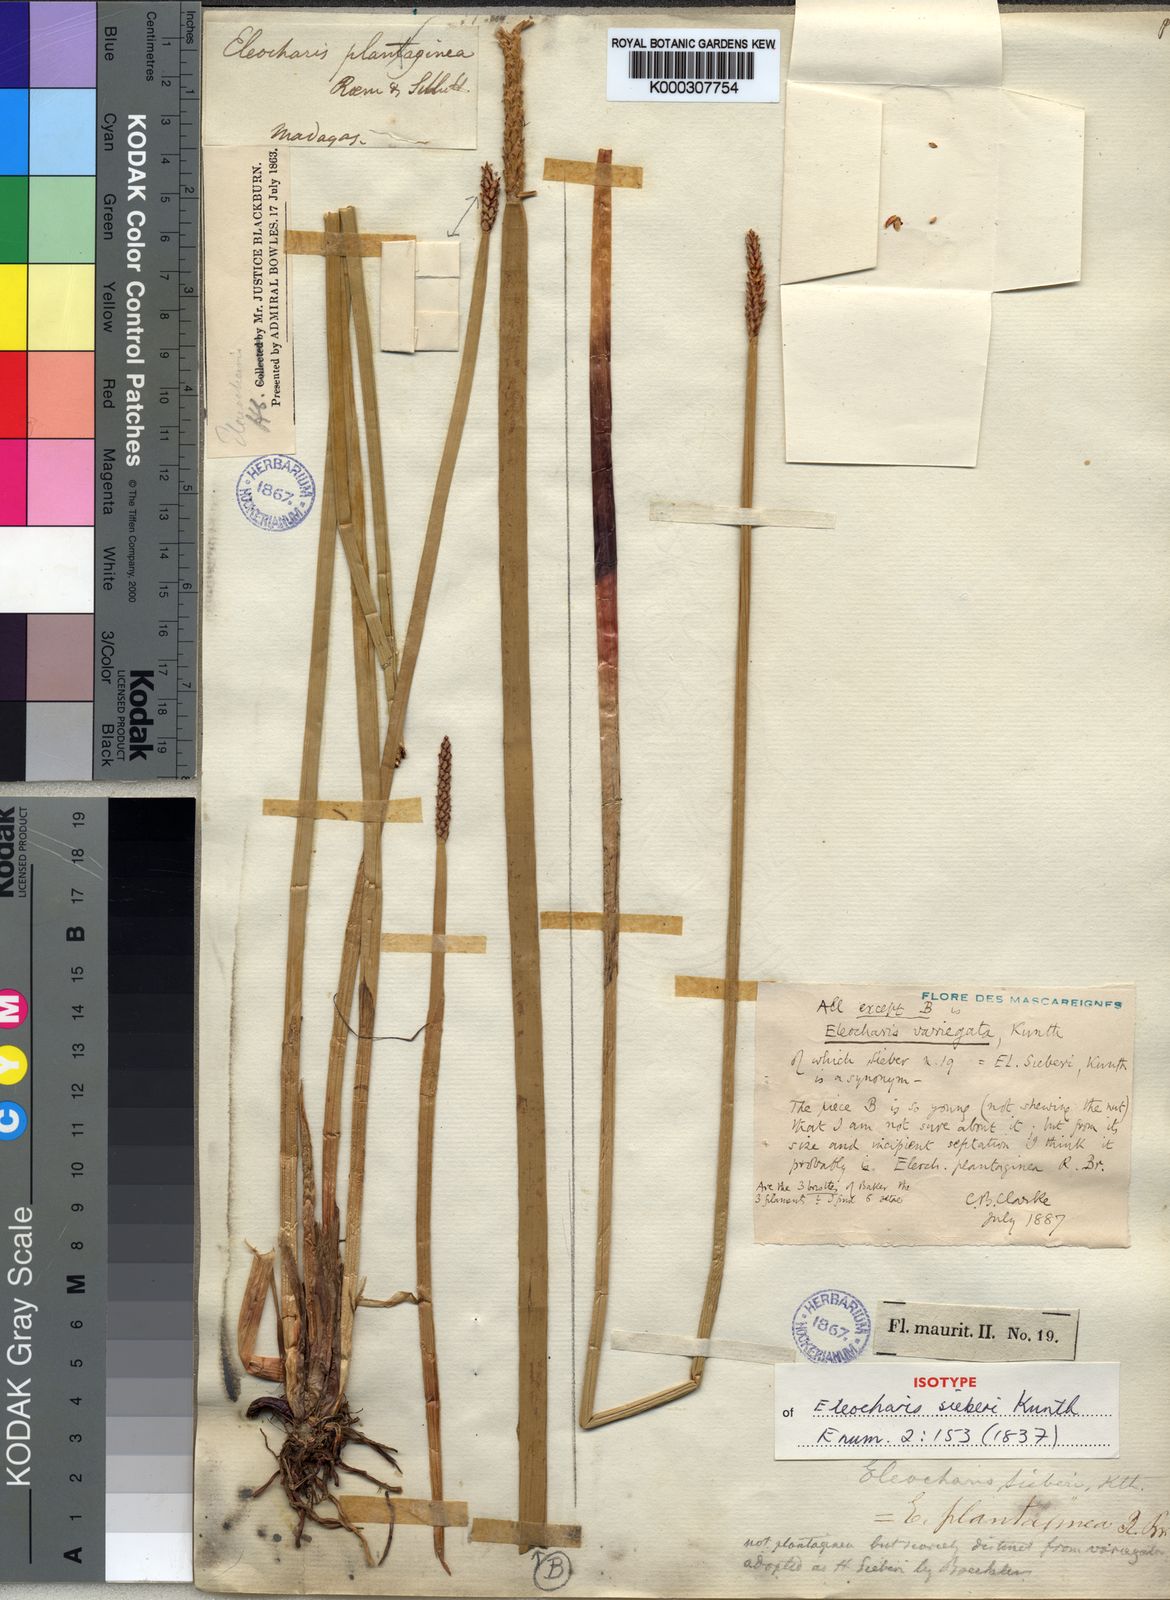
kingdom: Plantae
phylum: Tracheophyta
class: Liliopsida
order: Poales
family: Cyperaceae
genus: Eleocharis
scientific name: Eleocharis
